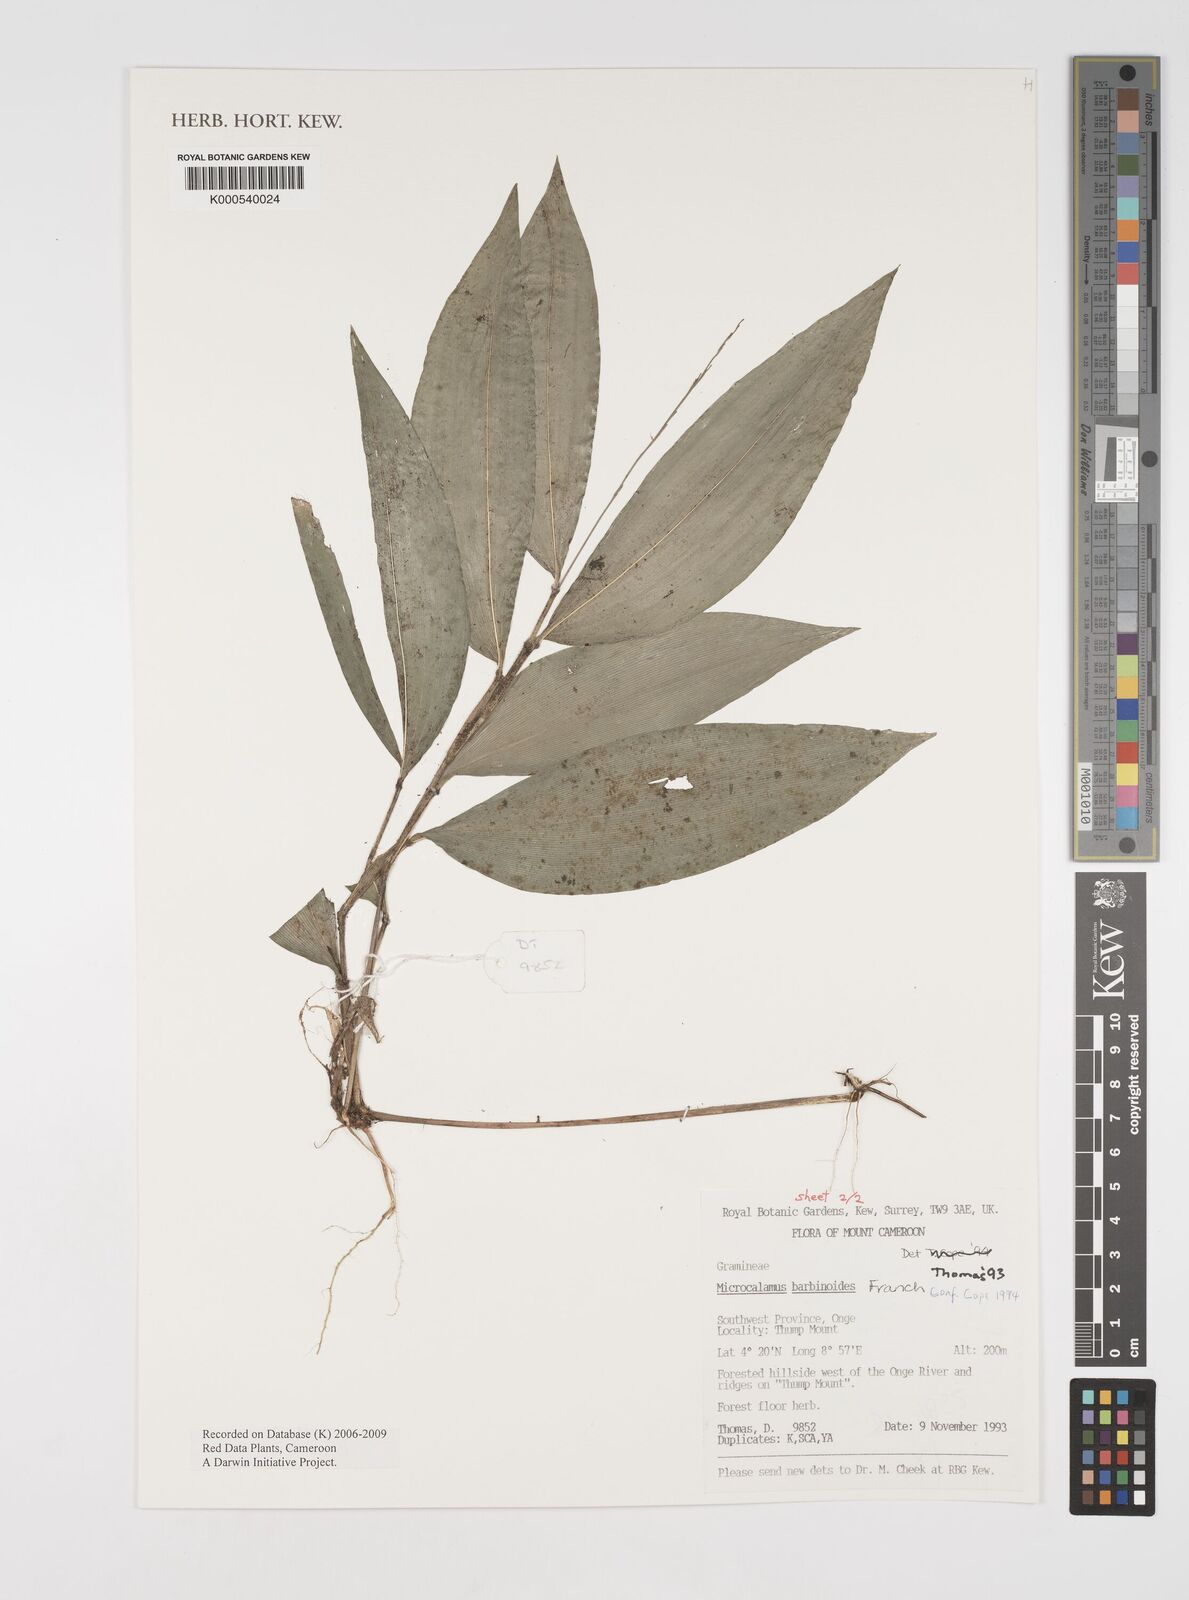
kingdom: Plantae
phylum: Tracheophyta
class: Liliopsida
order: Poales
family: Poaceae
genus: Microcalamus
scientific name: Microcalamus barbinodis
